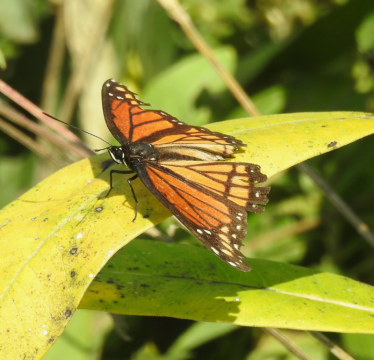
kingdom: Animalia
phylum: Arthropoda
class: Insecta
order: Lepidoptera
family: Nymphalidae
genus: Limenitis
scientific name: Limenitis archippus
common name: Viceroy
